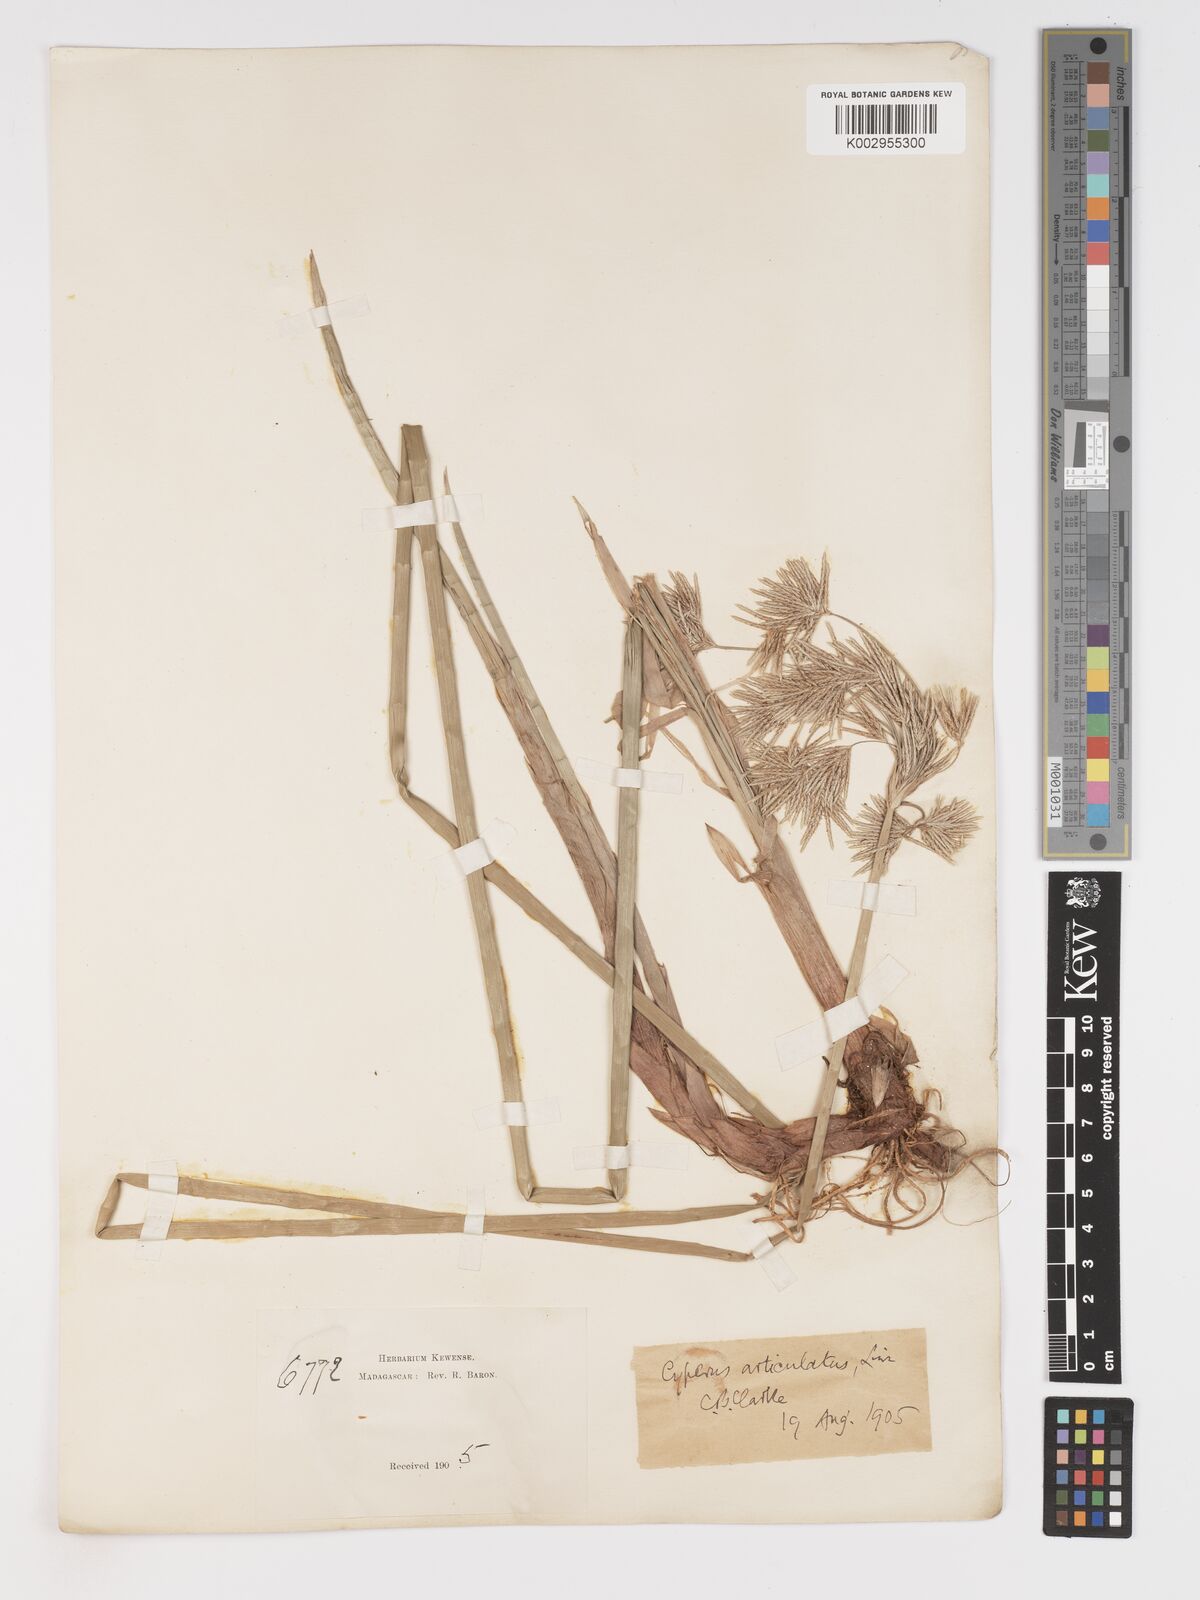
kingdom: Plantae
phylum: Tracheophyta
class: Liliopsida
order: Poales
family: Cyperaceae
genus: Cyperus
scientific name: Cyperus articulatus
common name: Jointed flatsedge
